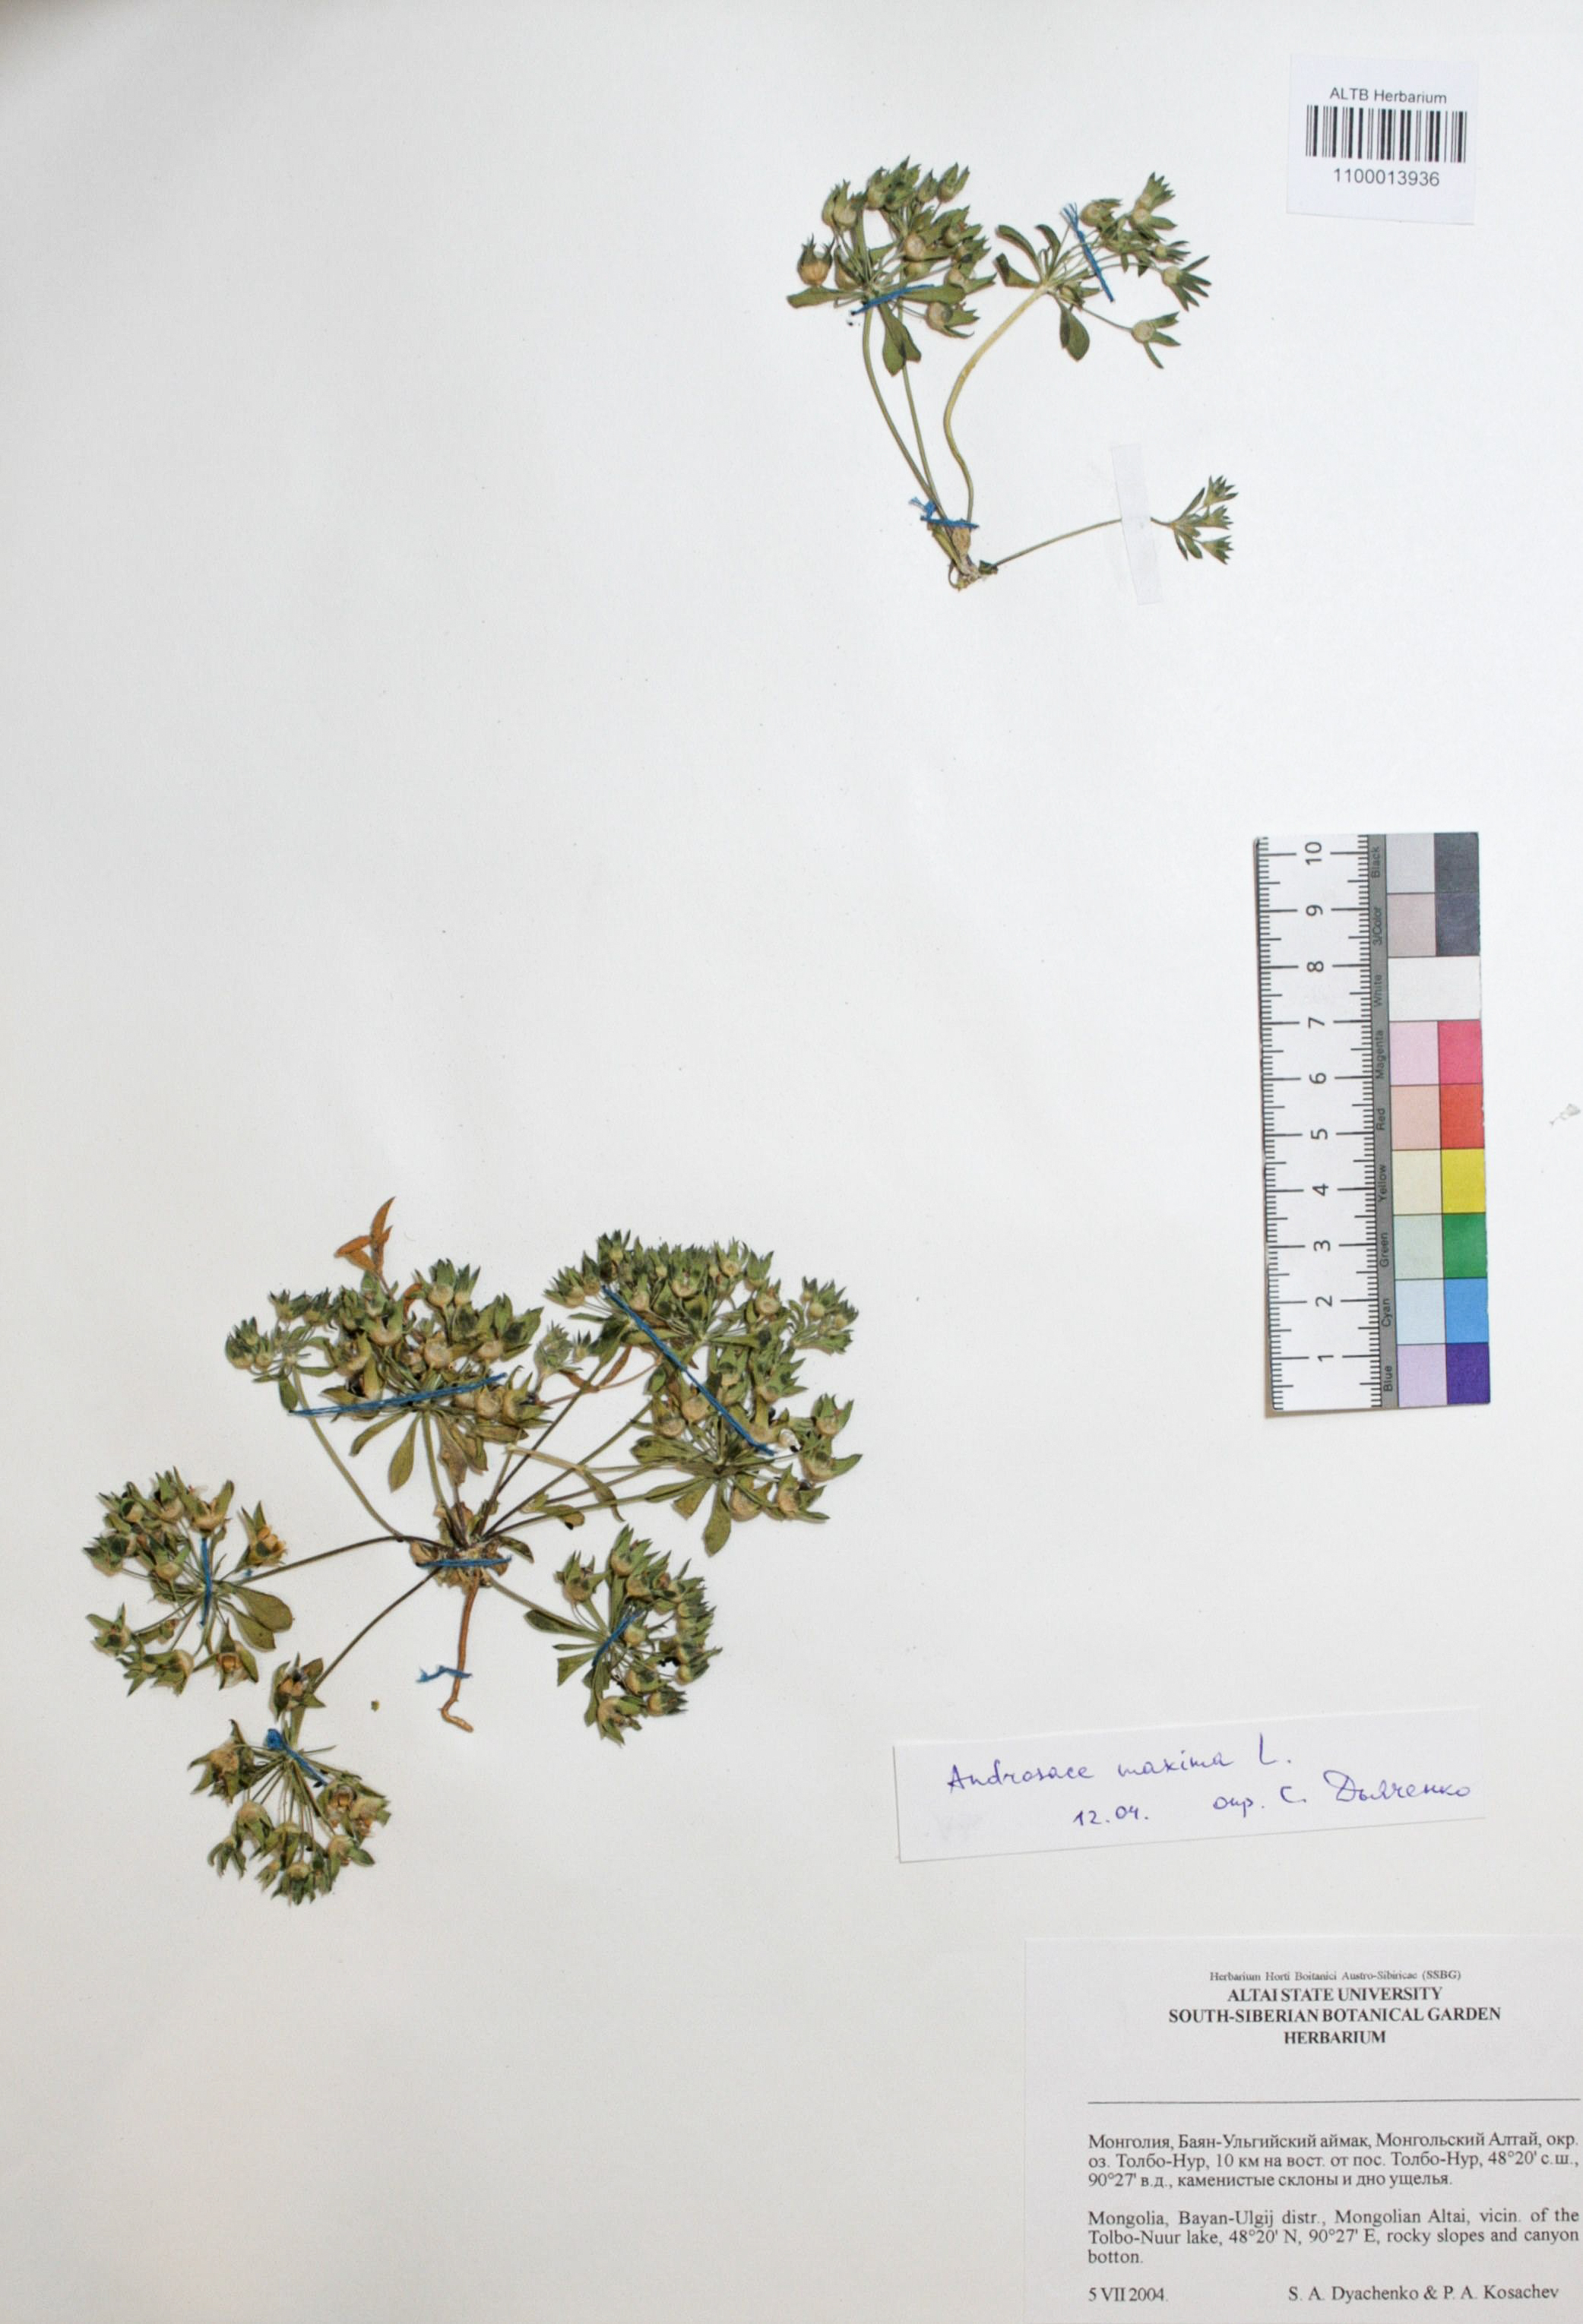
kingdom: Plantae
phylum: Tracheophyta
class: Magnoliopsida
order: Ericales
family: Primulaceae
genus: Androsace
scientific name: Androsace maxima
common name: Annual androsace
